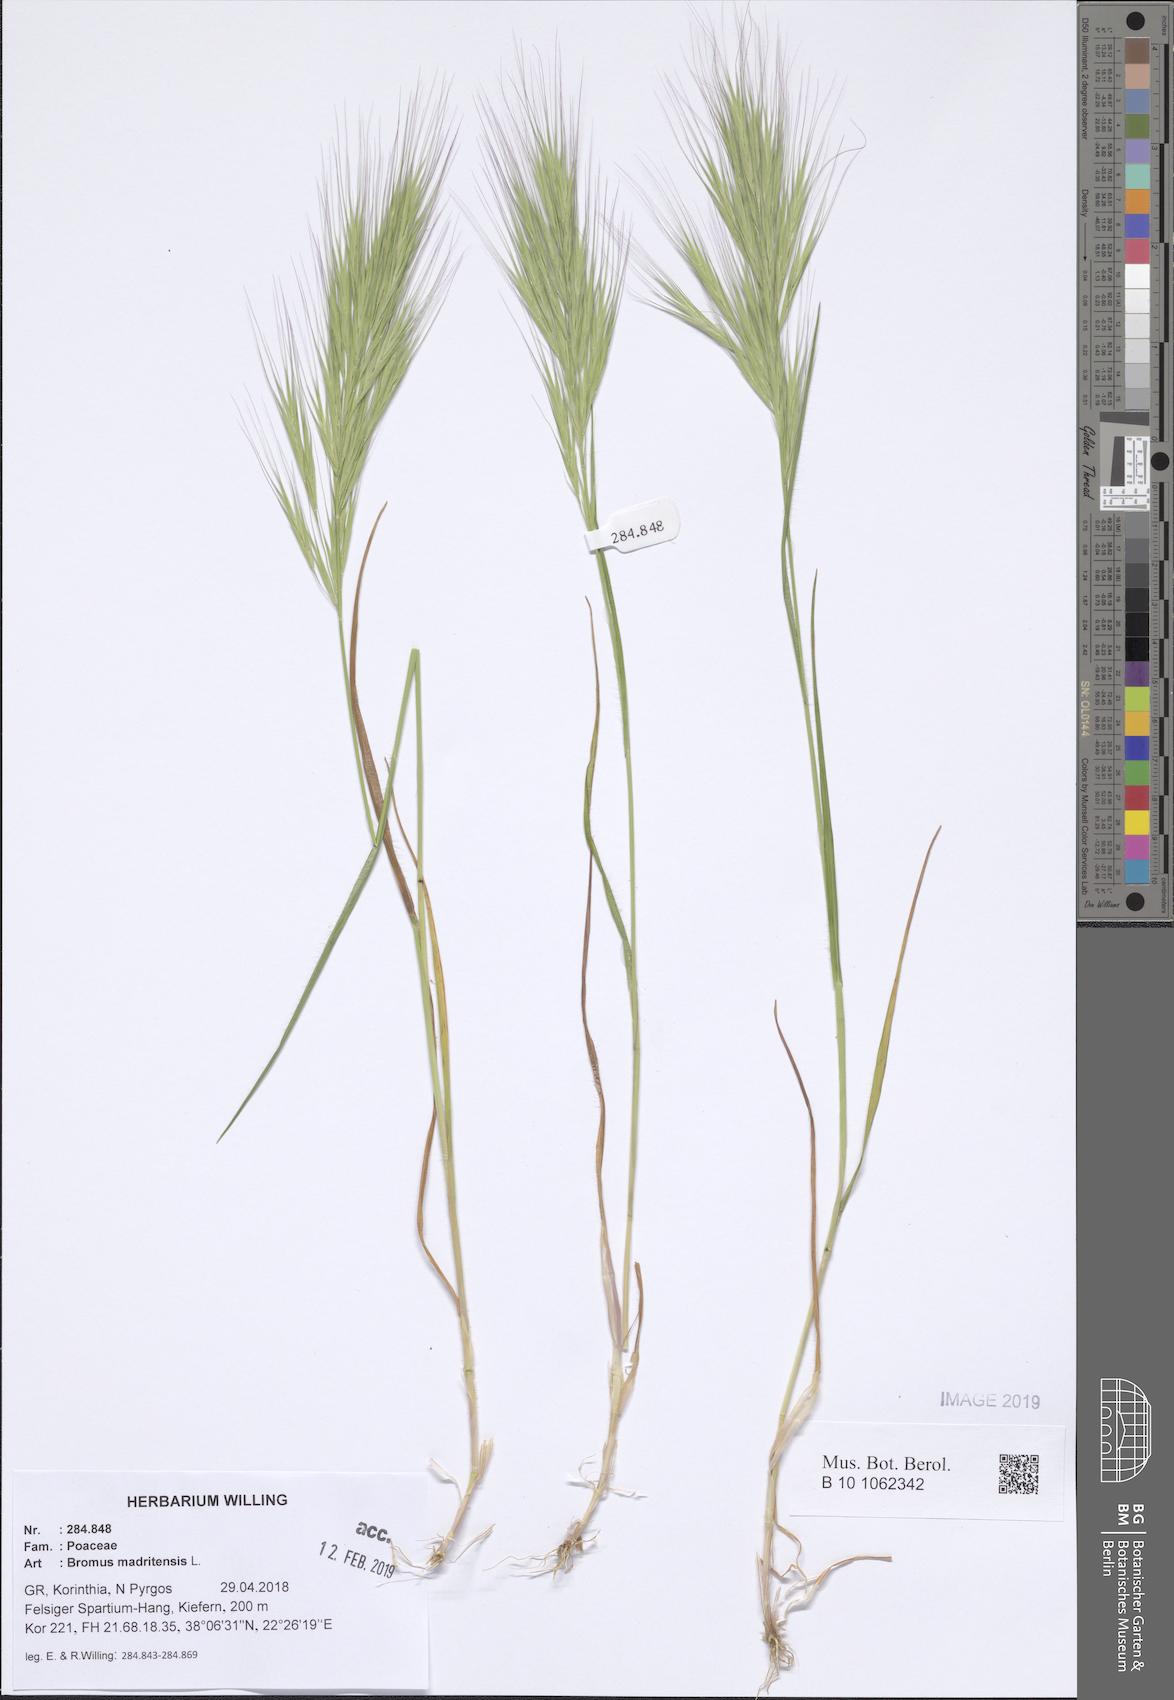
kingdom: Plantae
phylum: Tracheophyta
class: Liliopsida
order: Poales
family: Poaceae
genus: Bromus
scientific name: Bromus madritensis
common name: Compact brome
